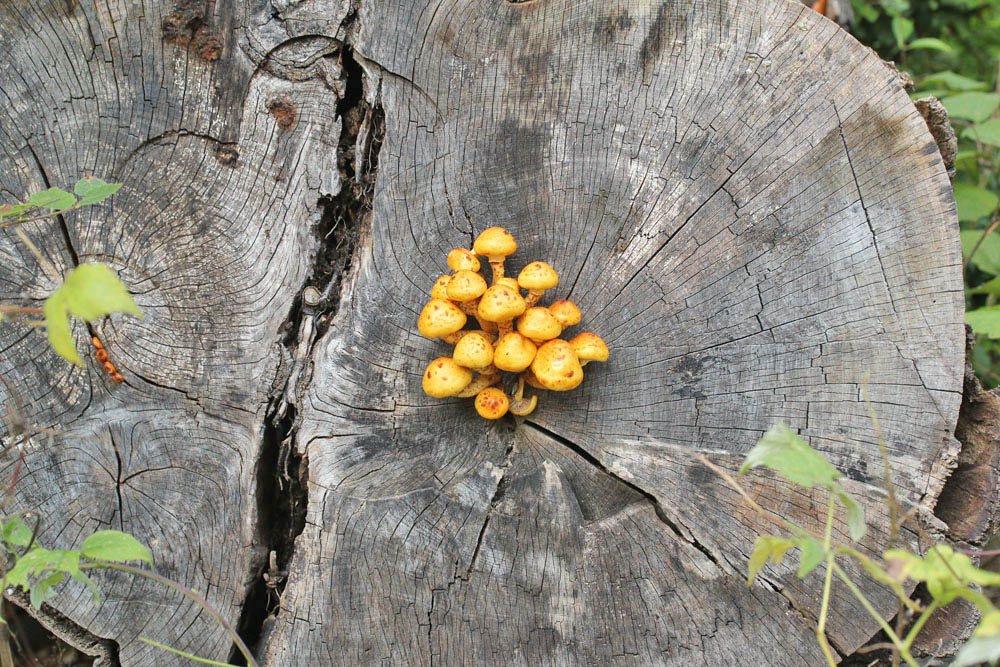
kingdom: Fungi
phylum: Basidiomycota
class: Agaricomycetes
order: Agaricales
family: Strophariaceae
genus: Pholiota
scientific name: Pholiota adiposa
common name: højtsiddende skælhat
